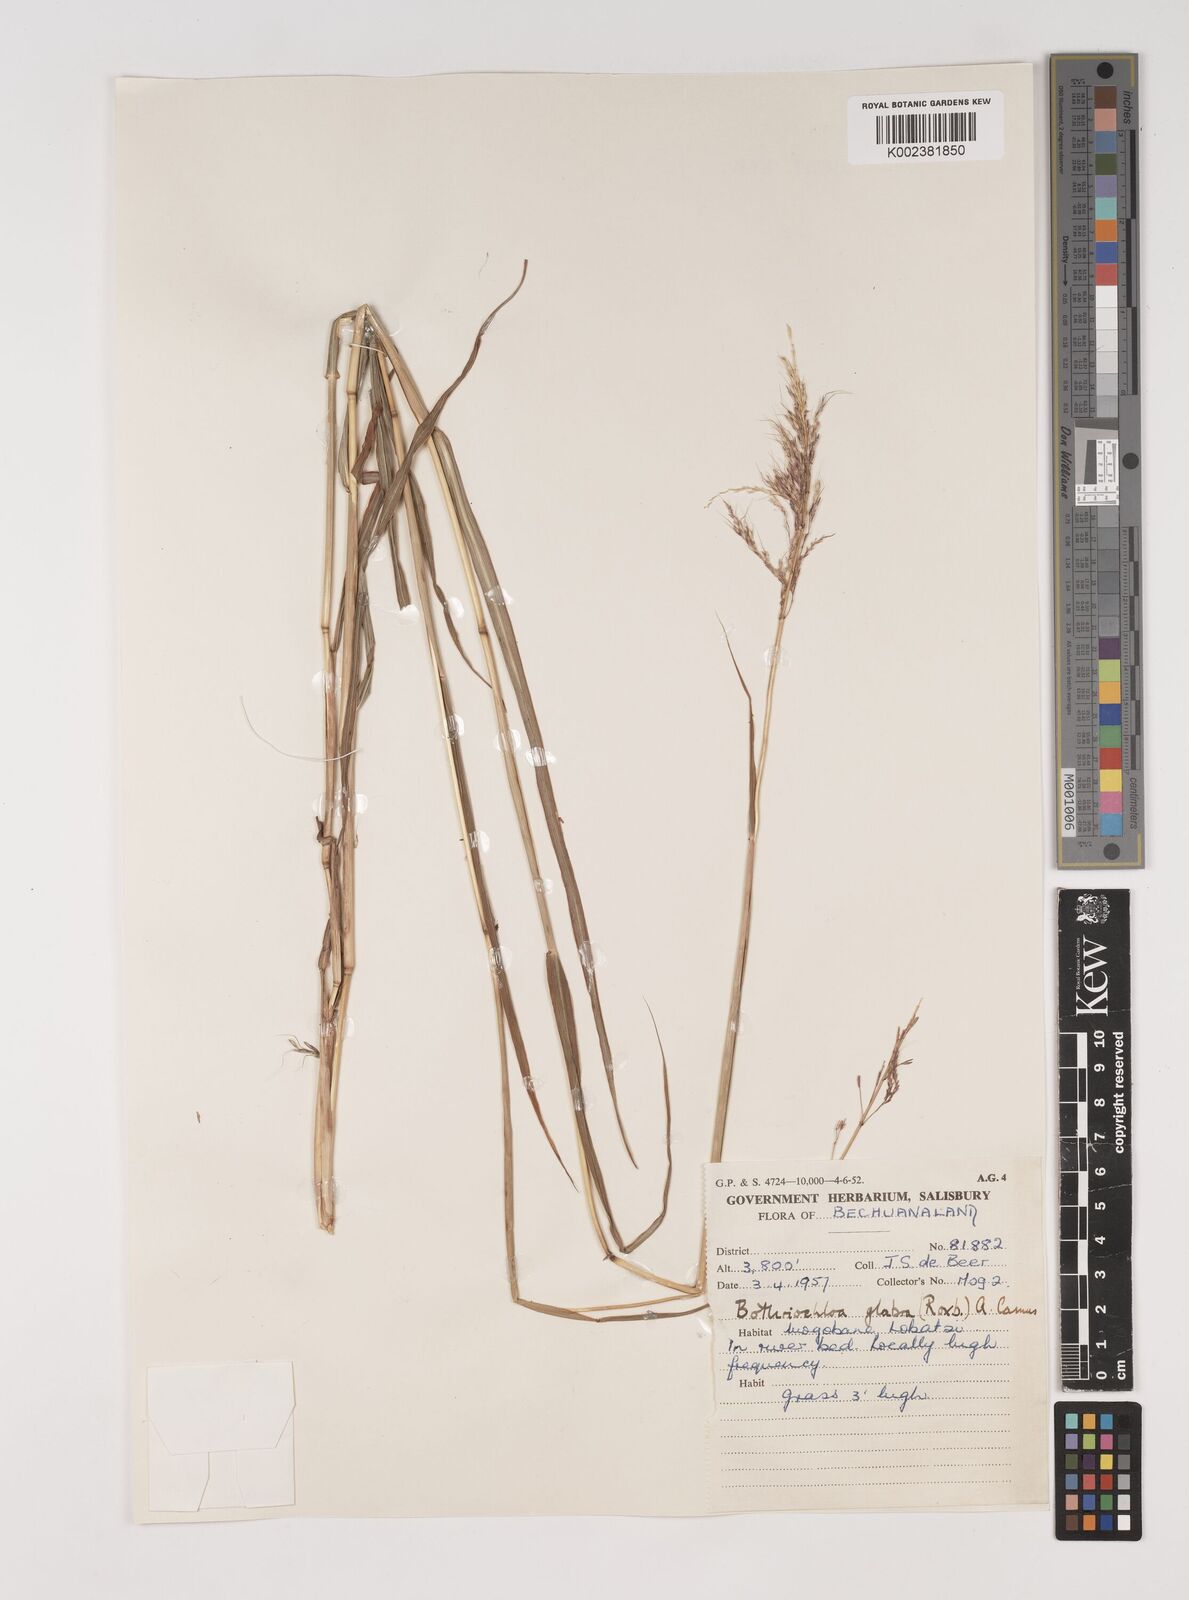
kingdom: Plantae
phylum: Tracheophyta
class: Liliopsida
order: Poales
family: Poaceae
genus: Bothriochloa
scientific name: Bothriochloa bladhii
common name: Caucasian bluestem
